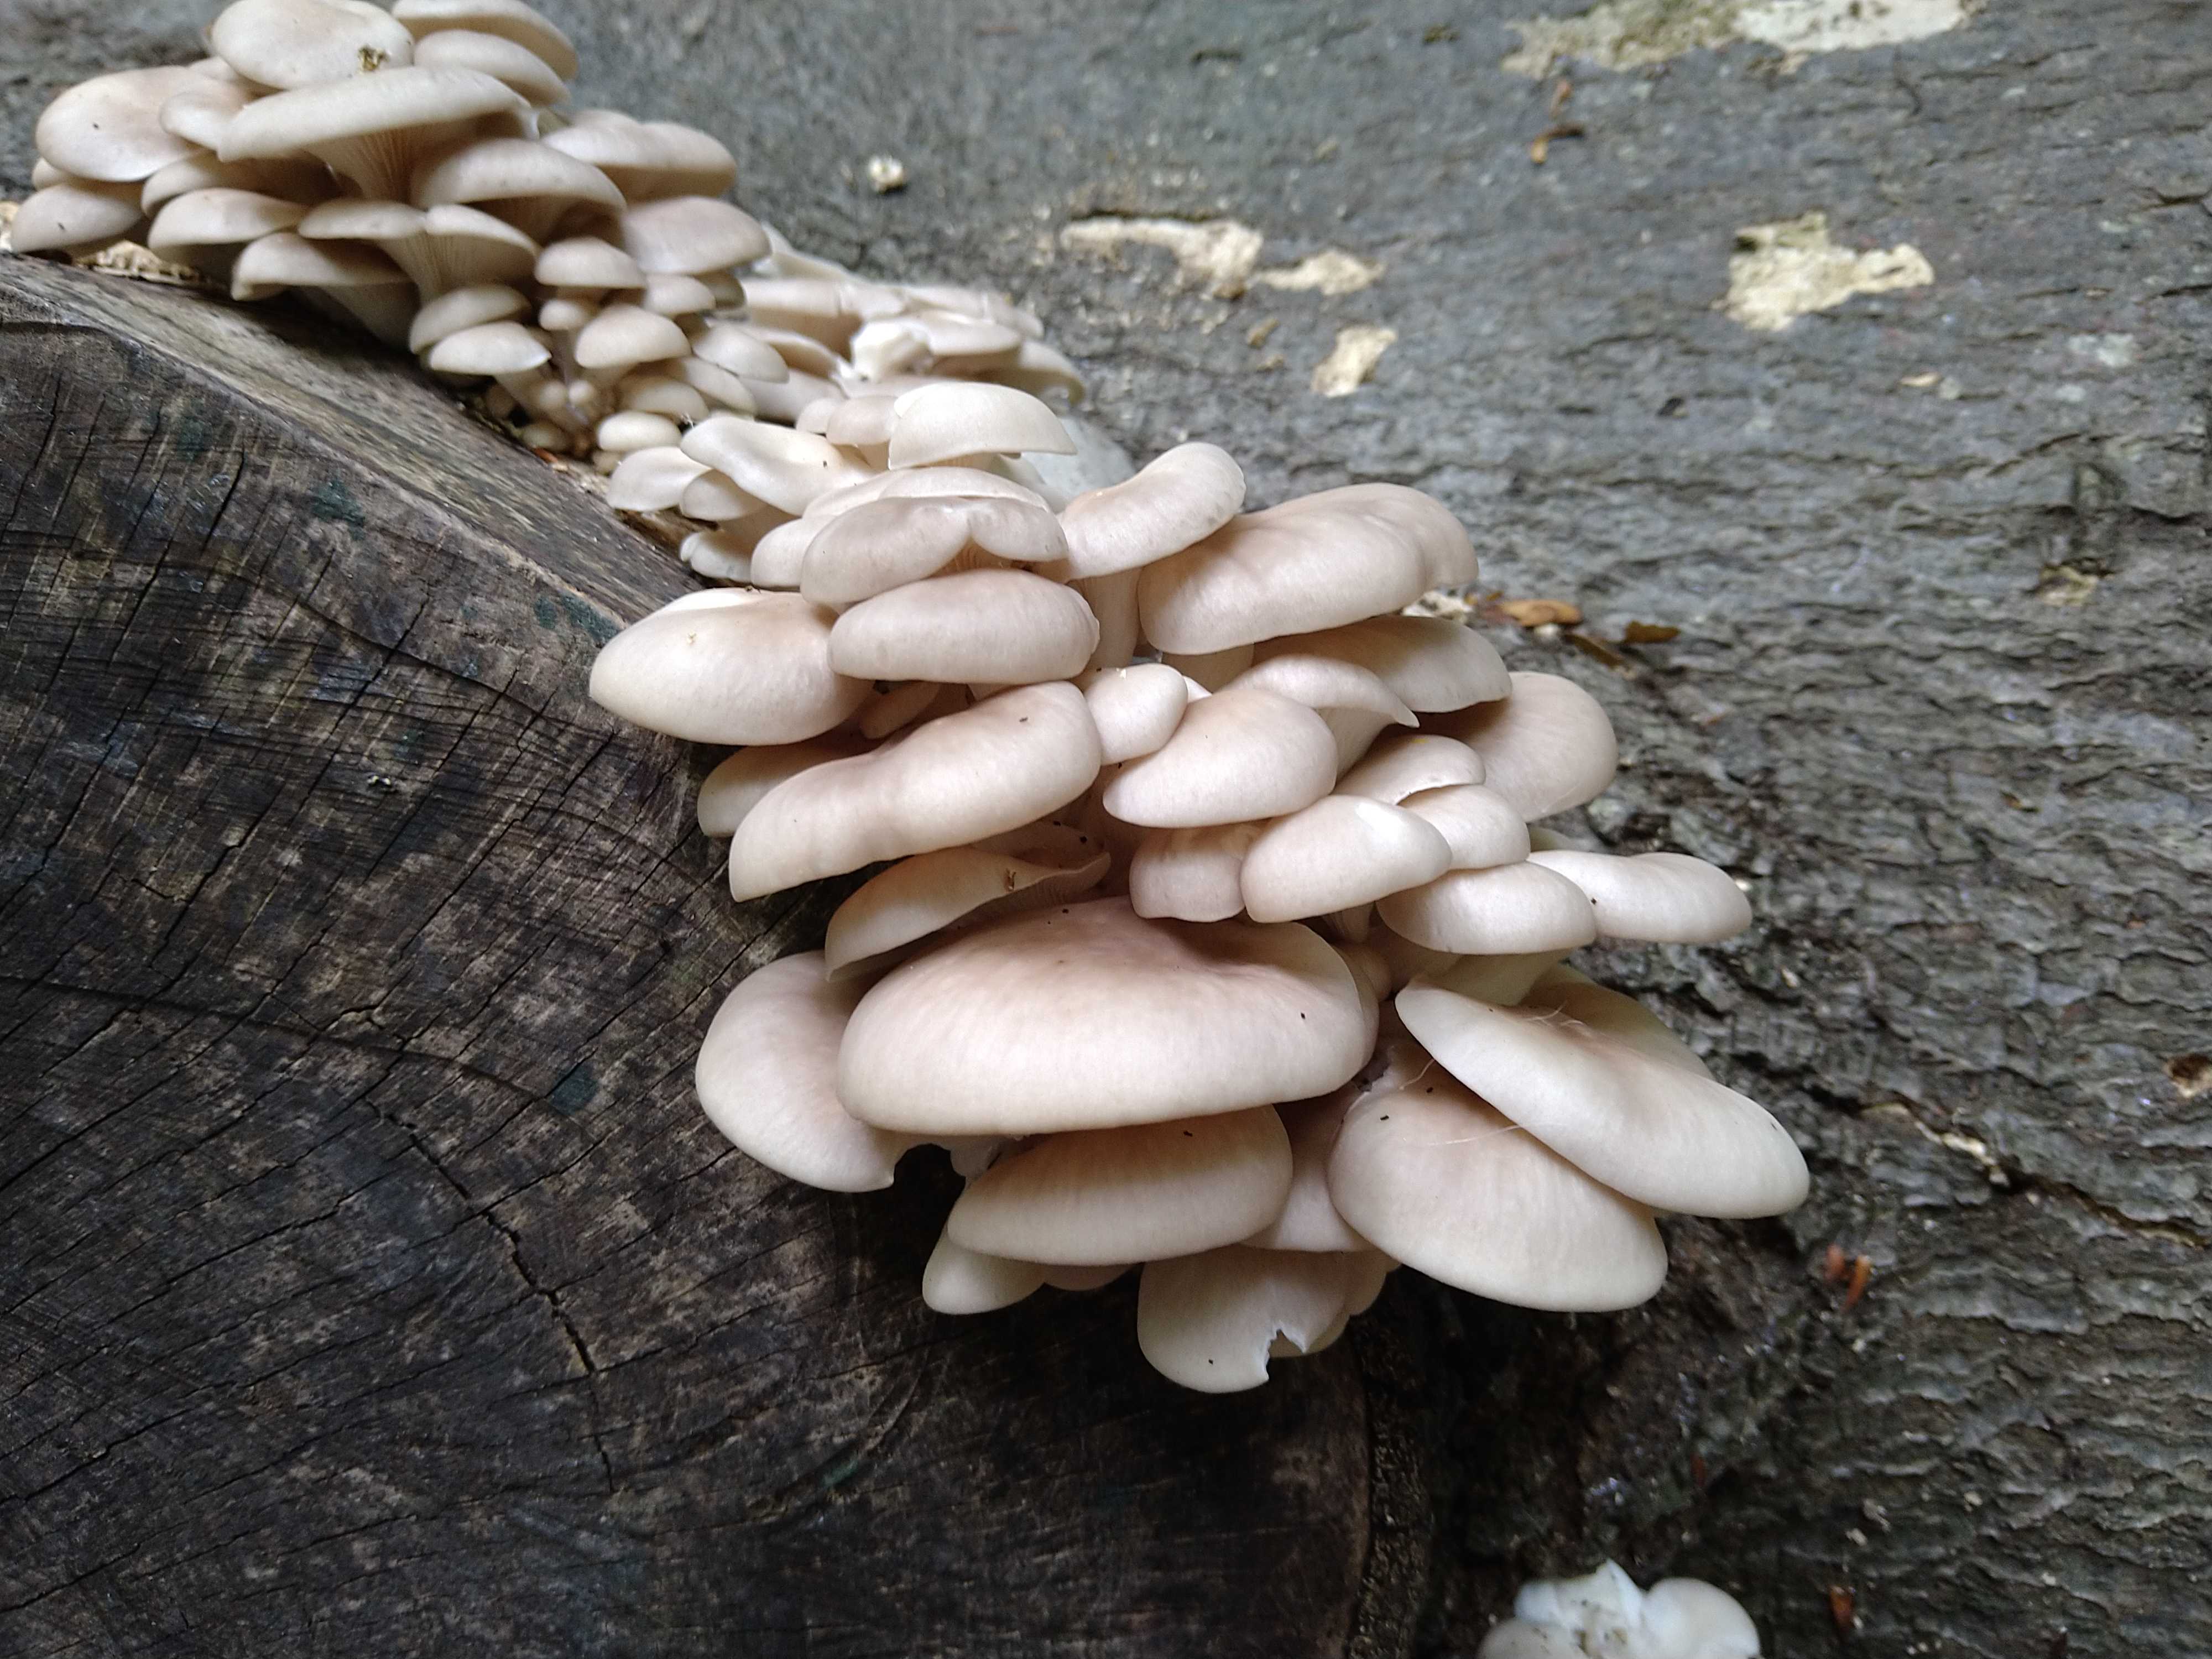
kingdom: Fungi
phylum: Basidiomycota
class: Agaricomycetes
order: Agaricales
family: Pleurotaceae
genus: Pleurotus
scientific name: Pleurotus pulmonarius
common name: sommer-østershat
